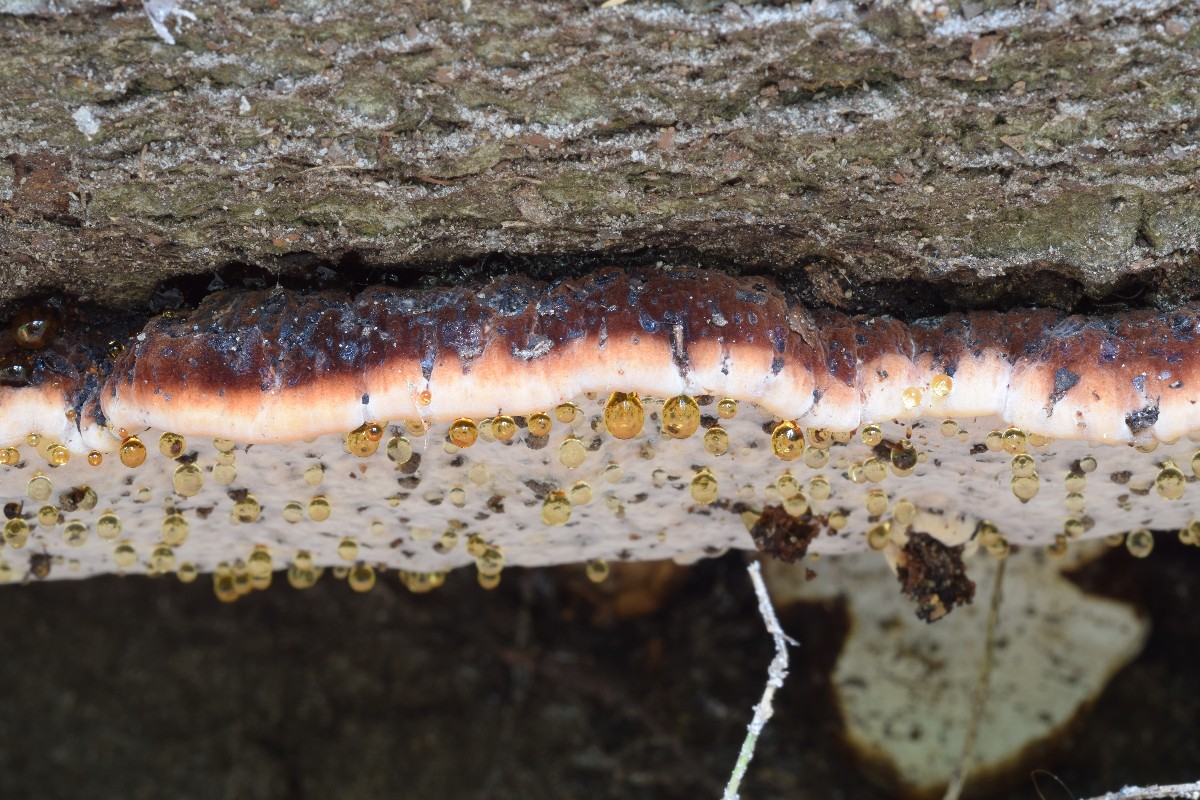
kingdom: Fungi
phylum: Basidiomycota
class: Agaricomycetes
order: Polyporales
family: Ischnodermataceae
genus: Ischnoderma
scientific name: Ischnoderma resinosum
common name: løv-tjæreporesvamp
